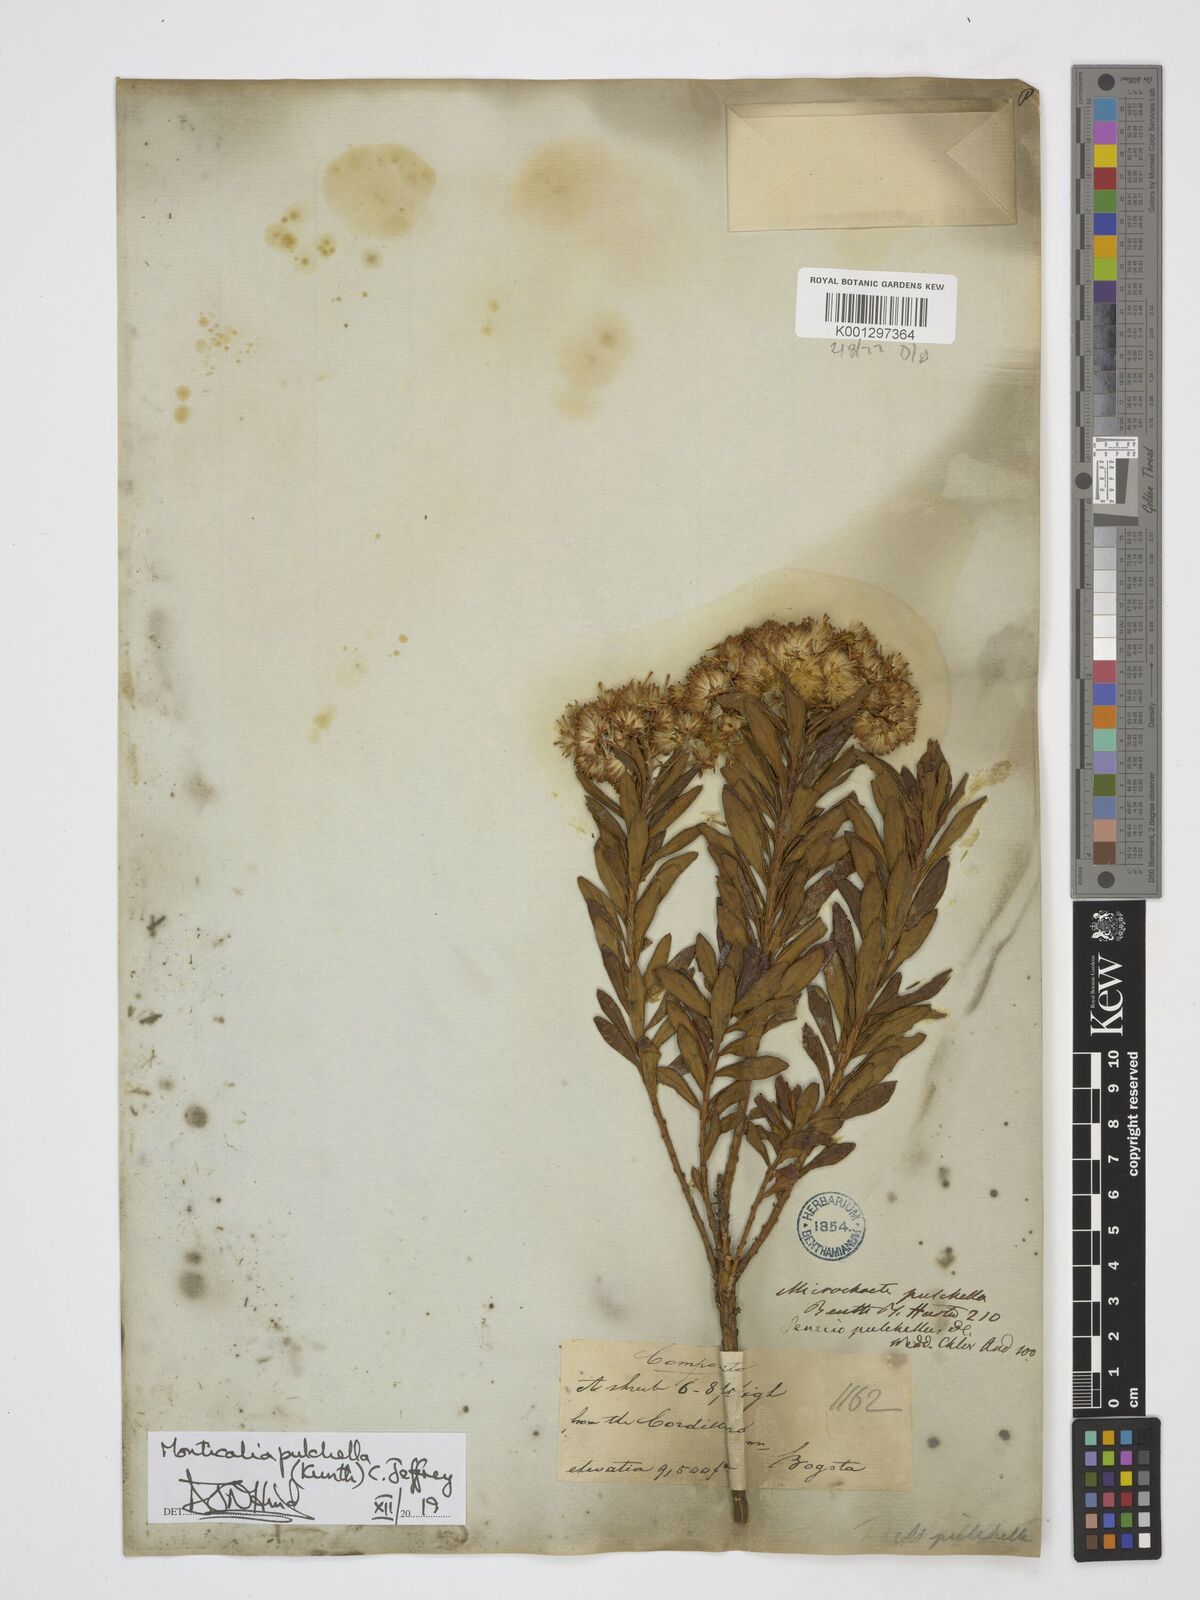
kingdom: Plantae
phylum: Tracheophyta
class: Magnoliopsida
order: Asterales
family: Asteraceae
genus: Monticalia
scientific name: Monticalia pulchella
